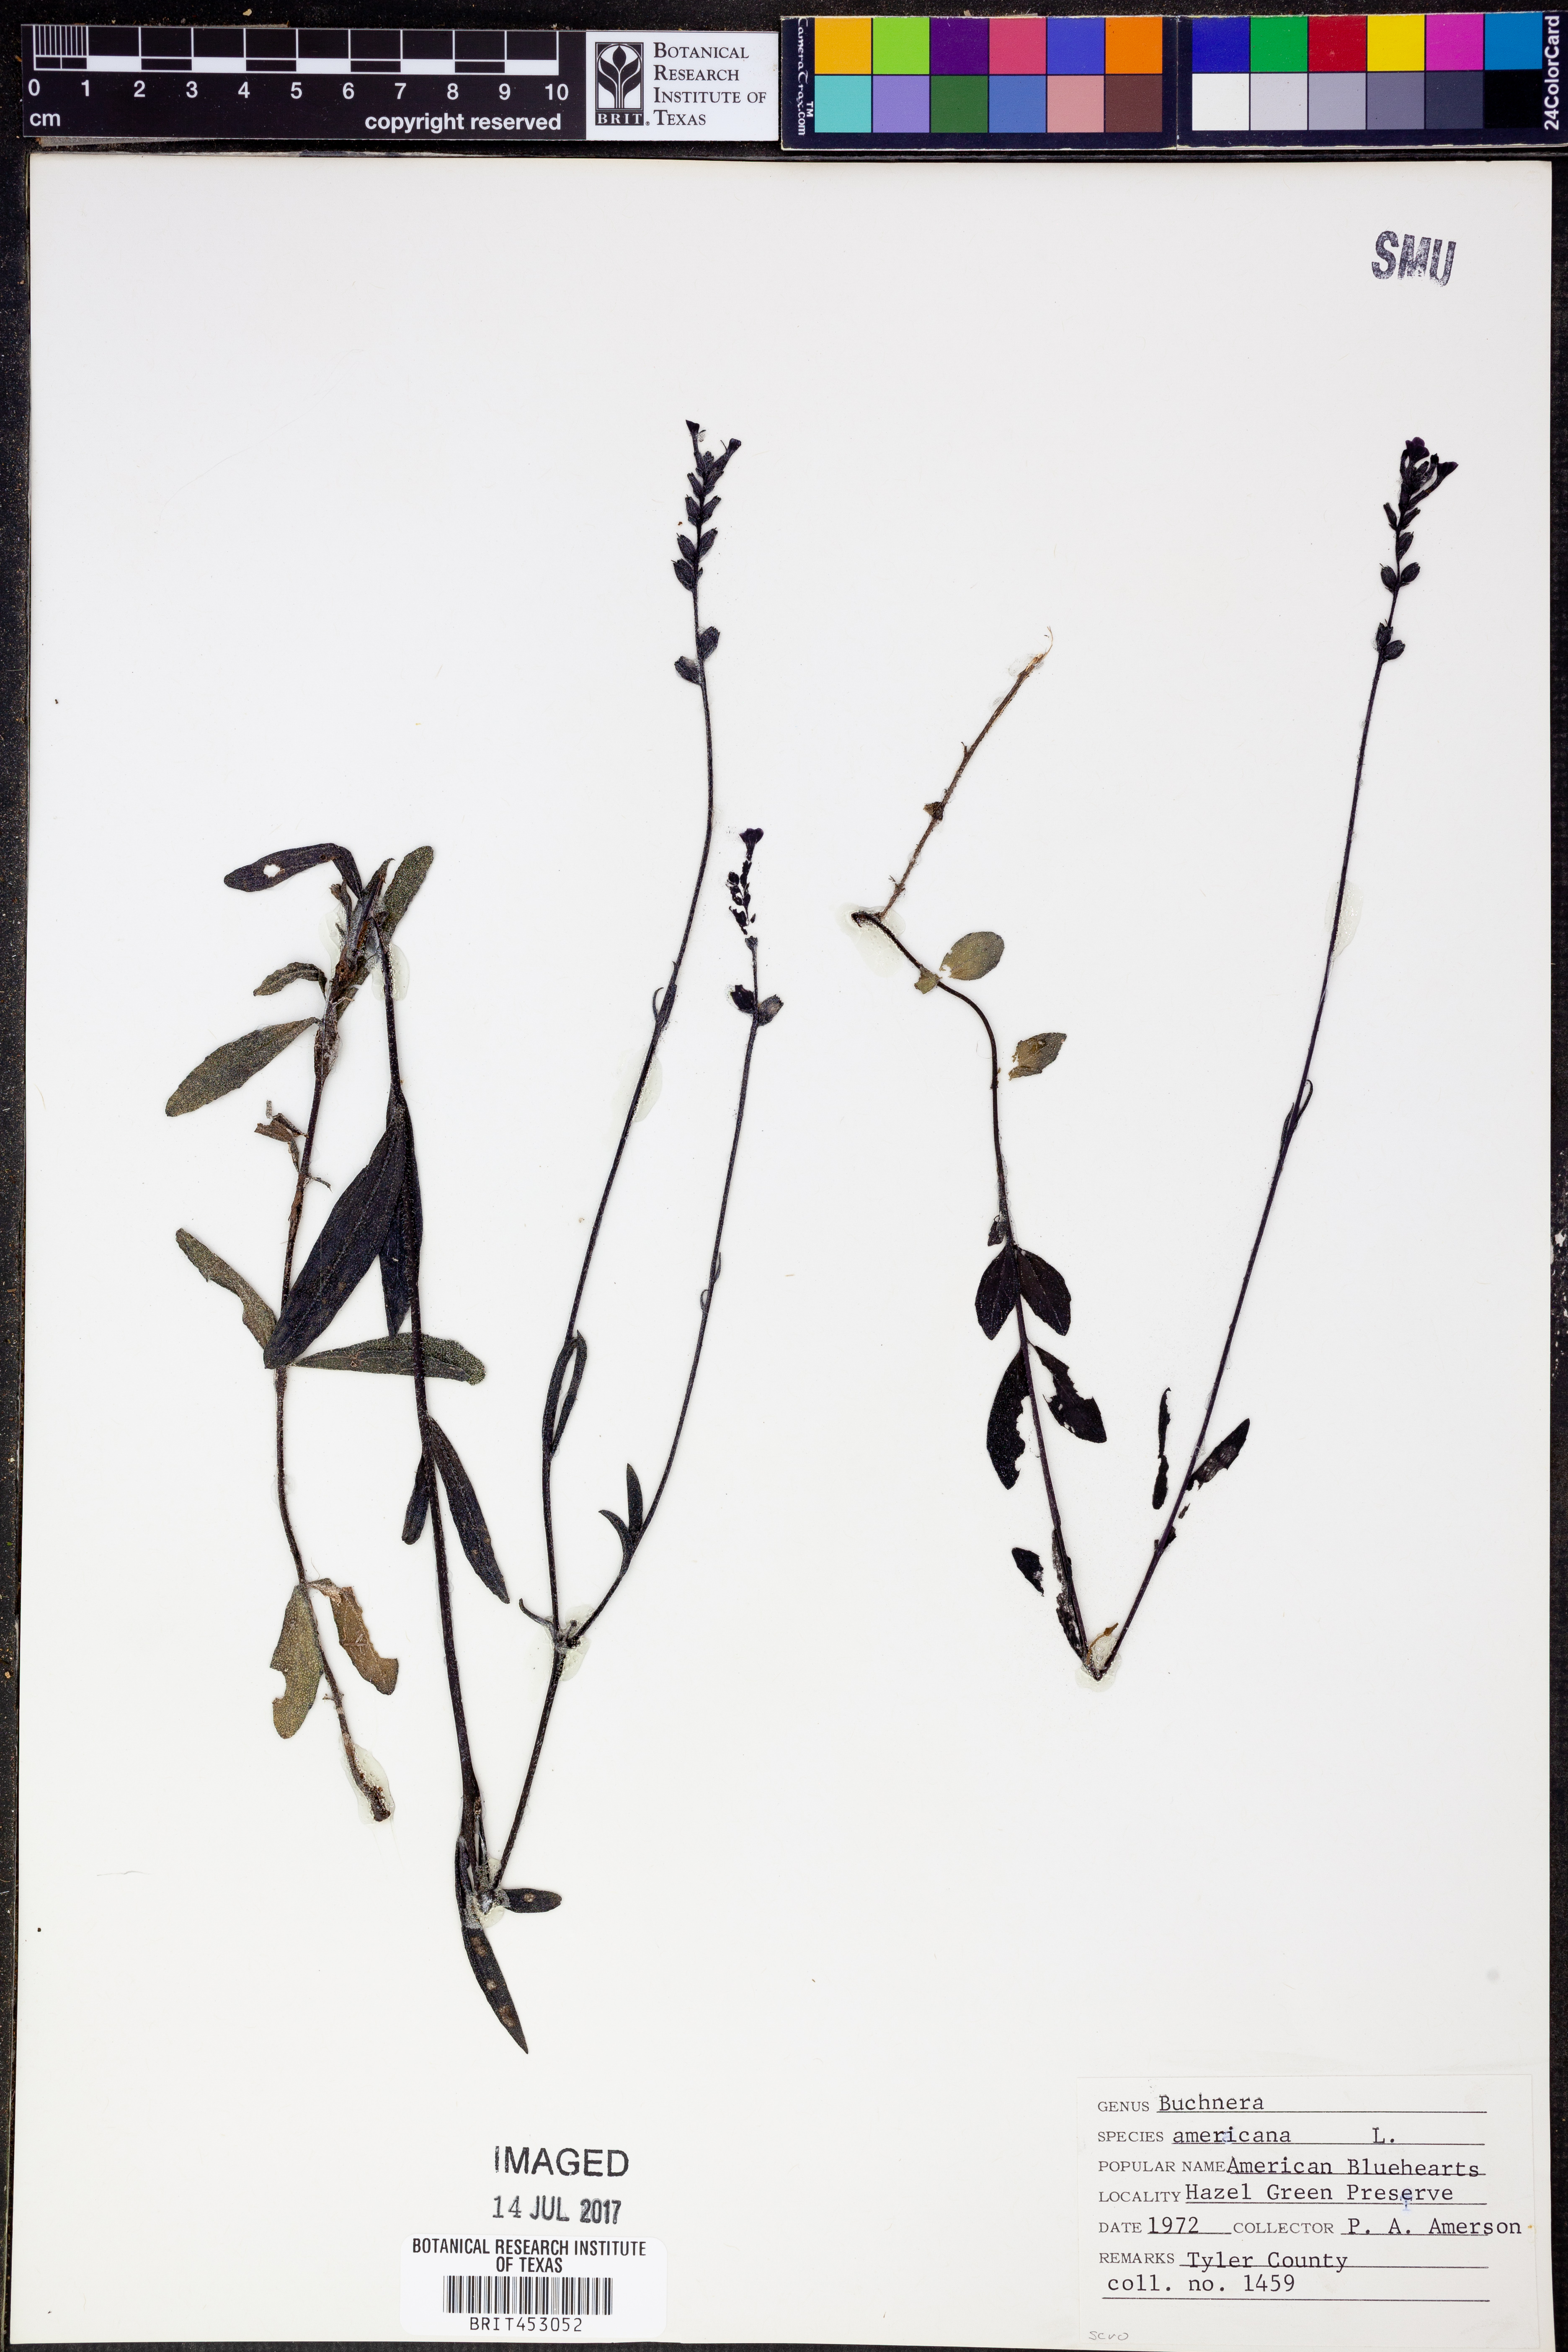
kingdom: Plantae
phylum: Tracheophyta
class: Magnoliopsida
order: Lamiales
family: Orobanchaceae
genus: Buchnera
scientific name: Buchnera americana
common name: American bluehearts
